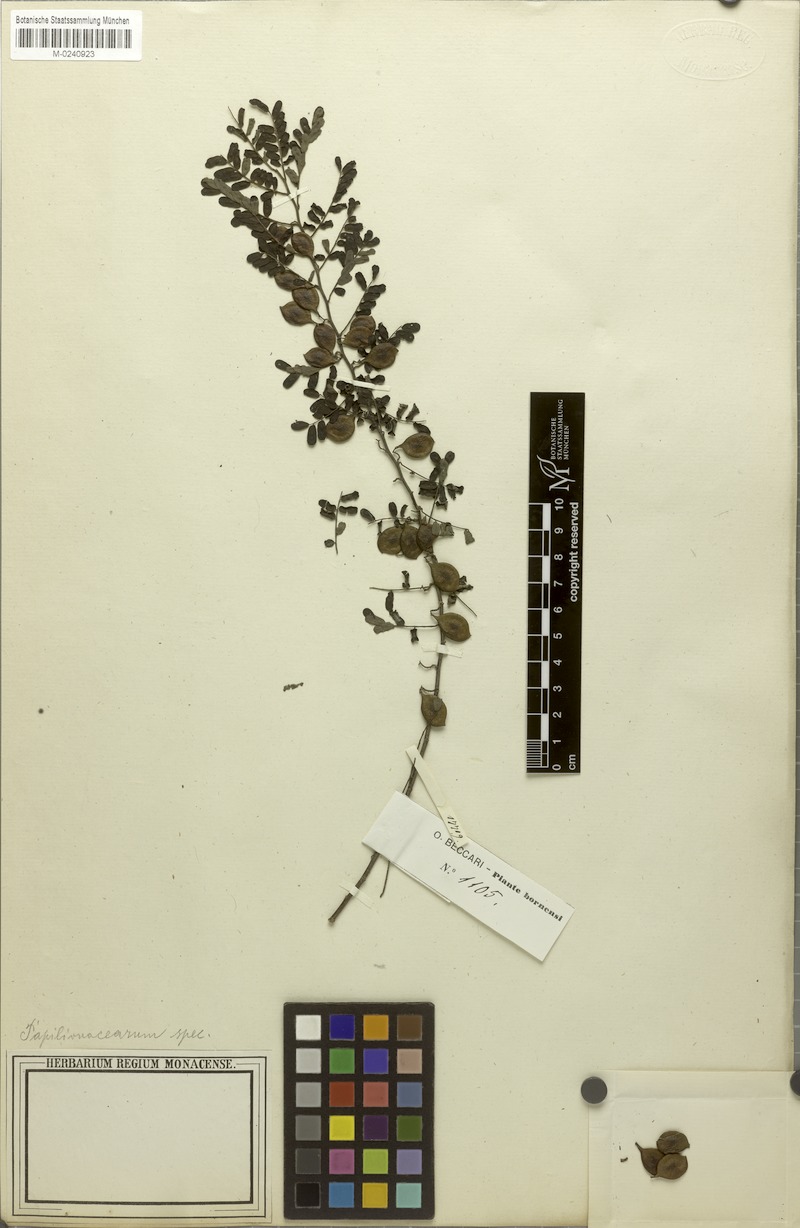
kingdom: Plantae
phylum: Tracheophyta
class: Magnoliopsida
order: Fabales
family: Fabaceae
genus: Dalbergia
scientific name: Dalbergia beccarii
